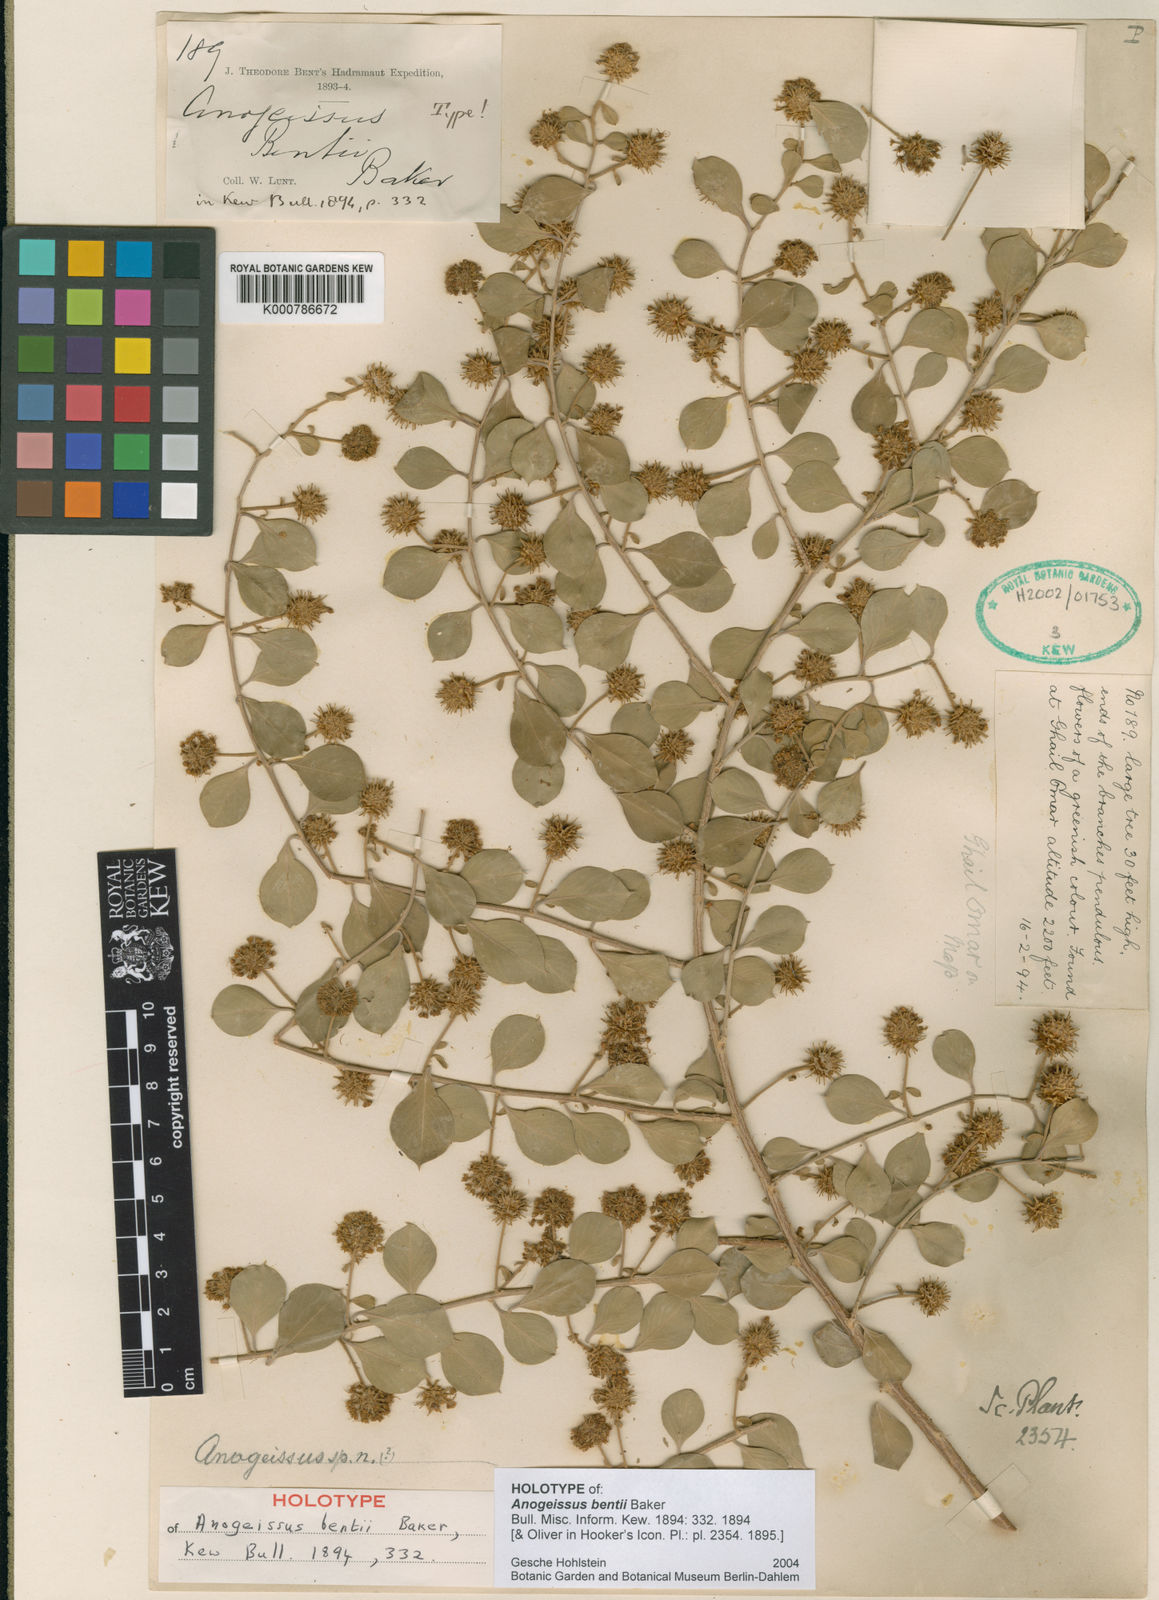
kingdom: Plantae
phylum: Tracheophyta
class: Magnoliopsida
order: Myrtales
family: Combretaceae
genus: Terminalia
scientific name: Terminalia bentii
